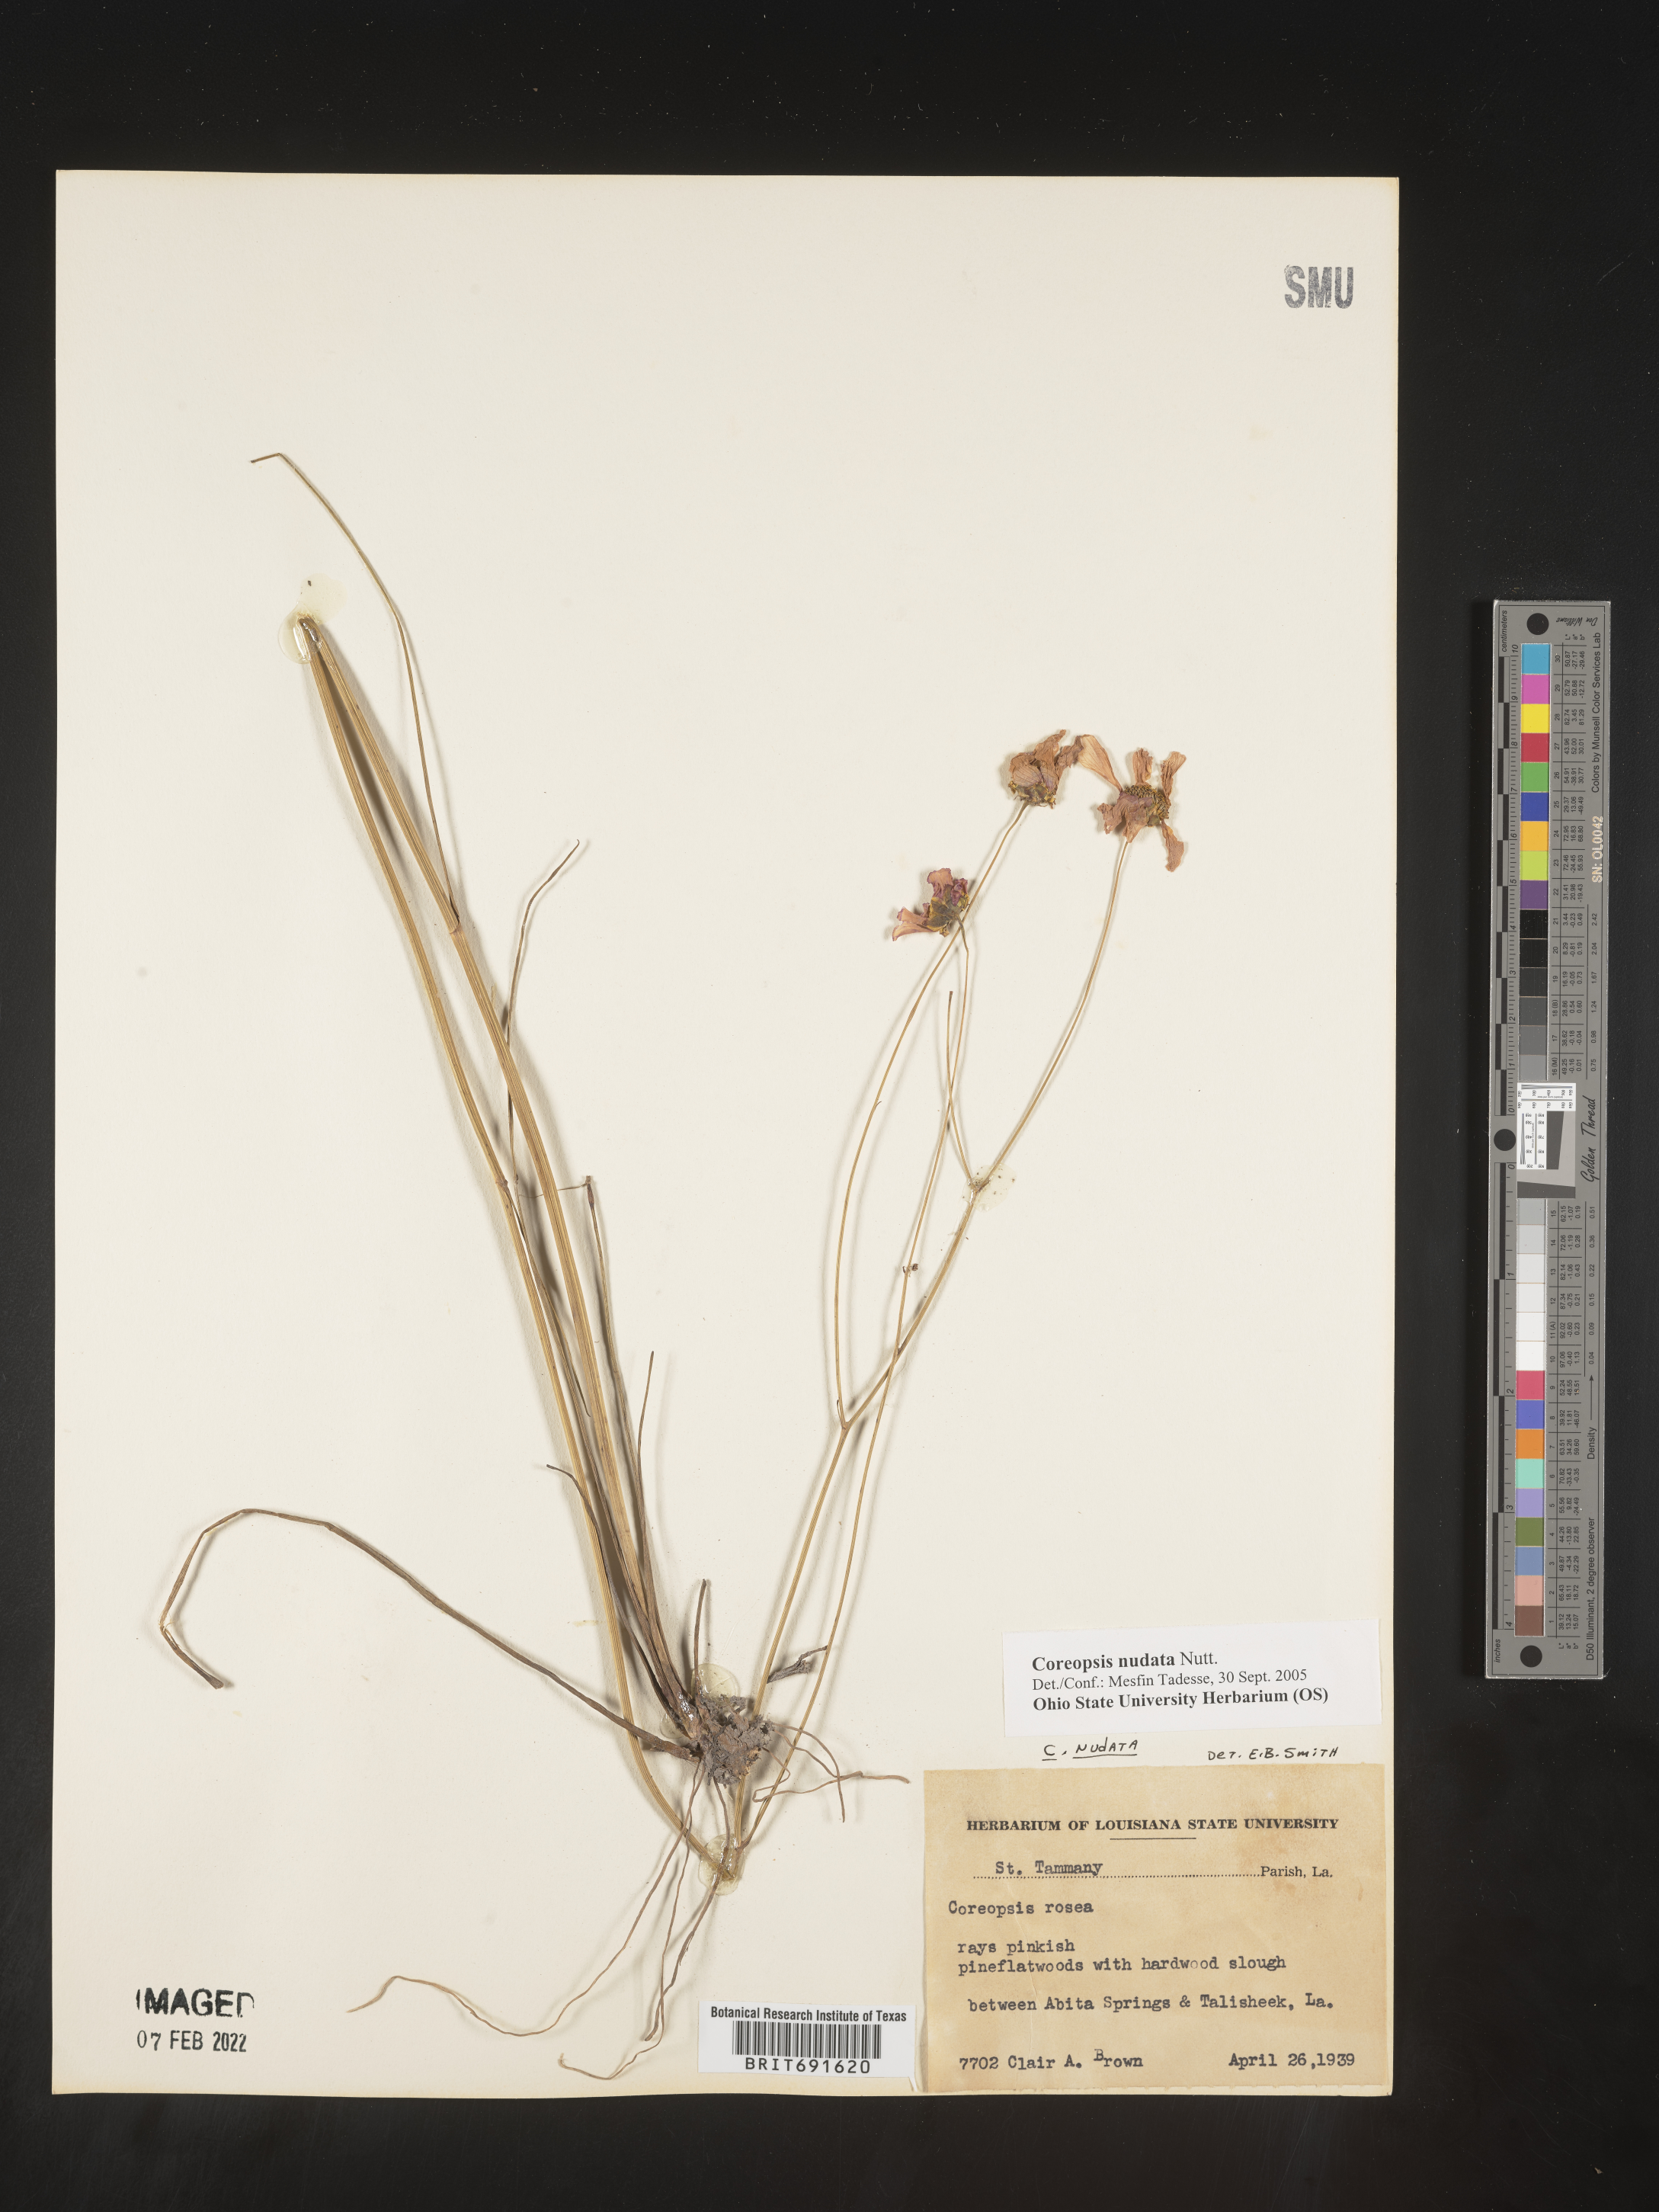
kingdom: Plantae
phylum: Tracheophyta
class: Magnoliopsida
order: Asterales
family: Asteraceae
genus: Coreopsis
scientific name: Coreopsis nudata
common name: Purple tickseed
